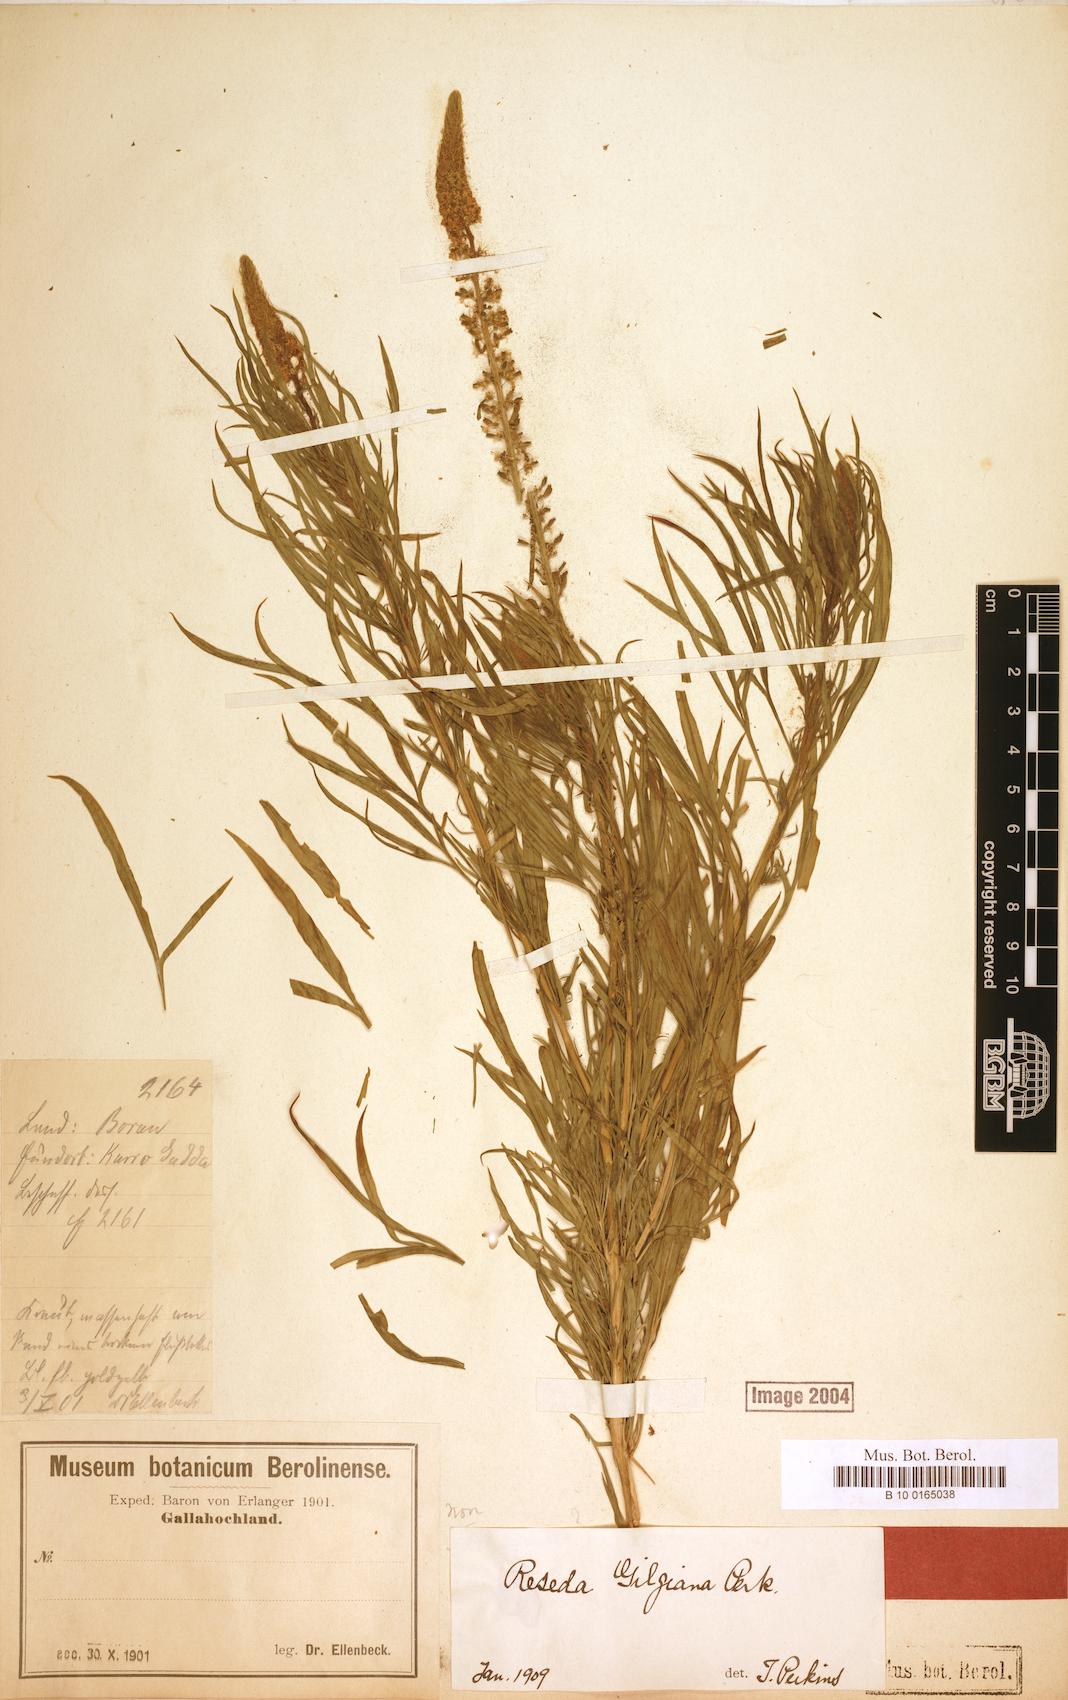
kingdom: Plantae
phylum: Tracheophyta
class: Magnoliopsida
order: Brassicales
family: Resedaceae
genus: Reseda
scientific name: Reseda amblycarpa
